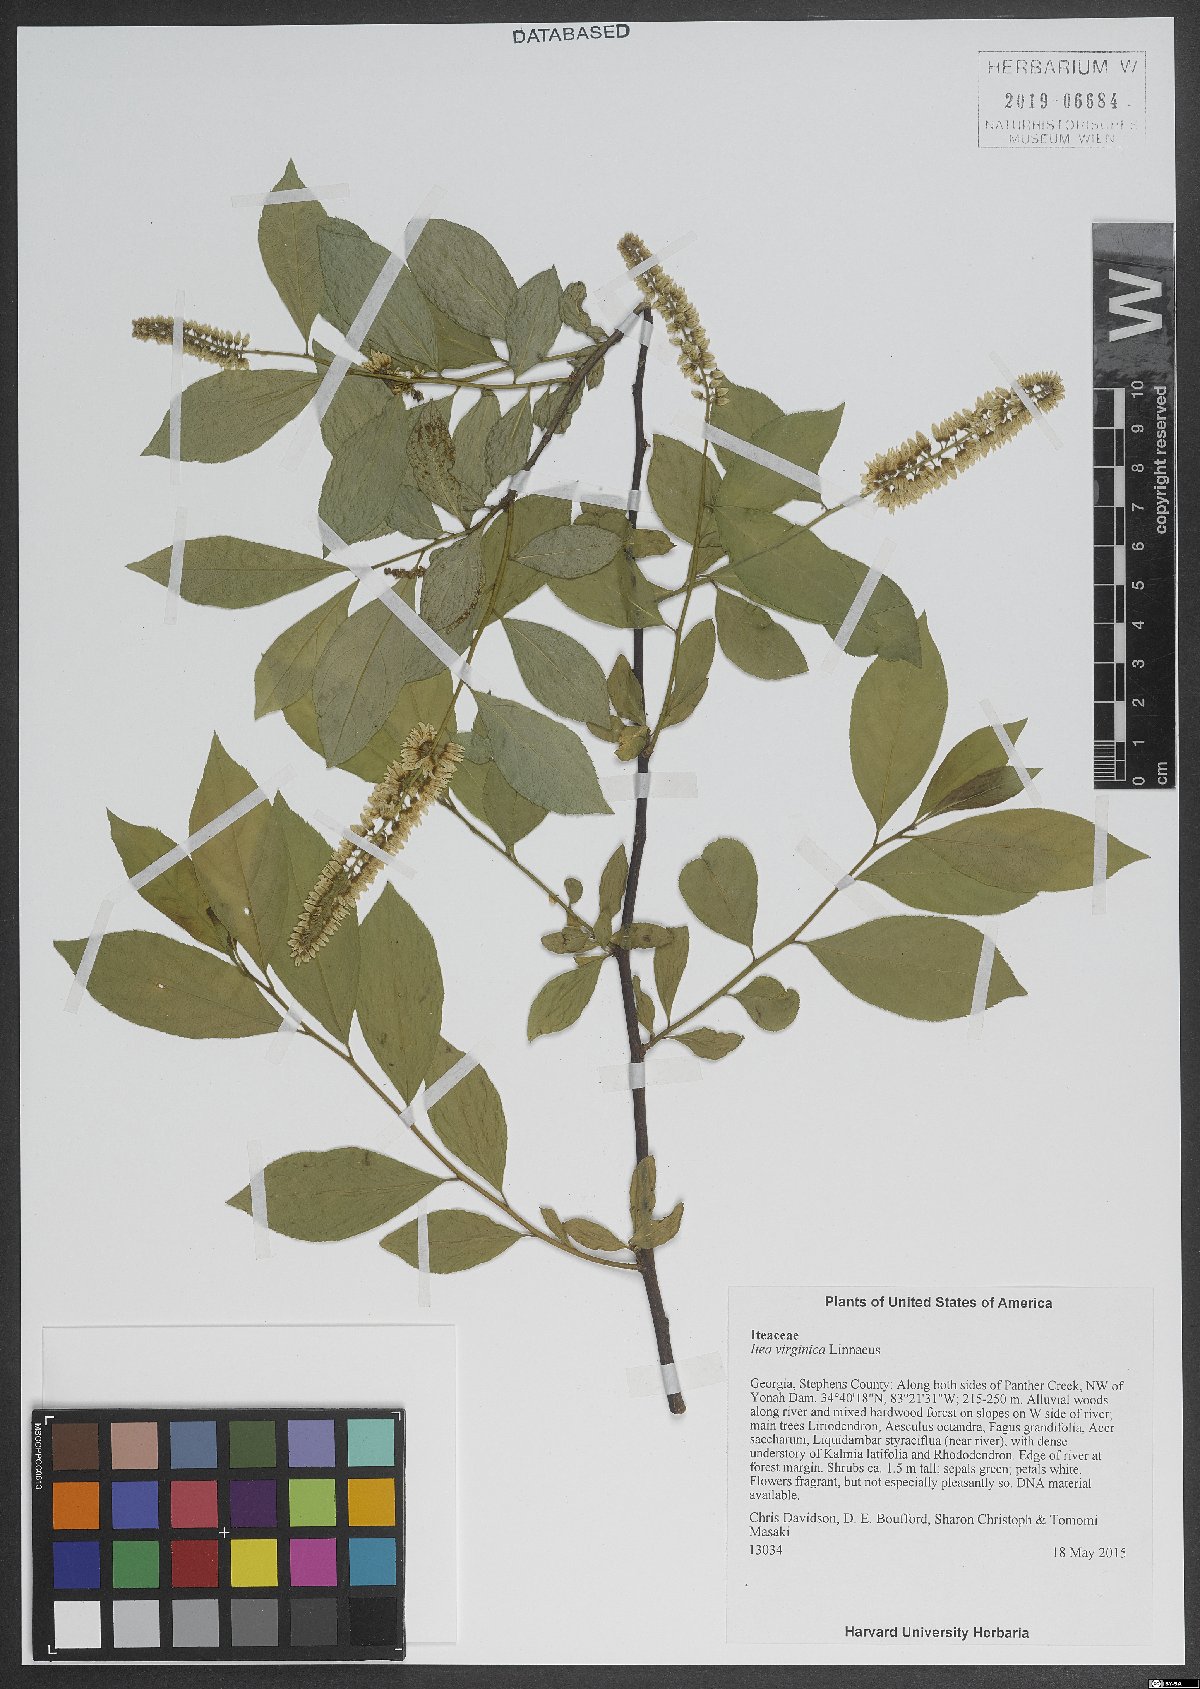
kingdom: Plantae
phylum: Tracheophyta
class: Magnoliopsida
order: Ericales
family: Cyrillaceae
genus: Cyrilla
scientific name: Cyrilla racemiflora
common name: Black titi
